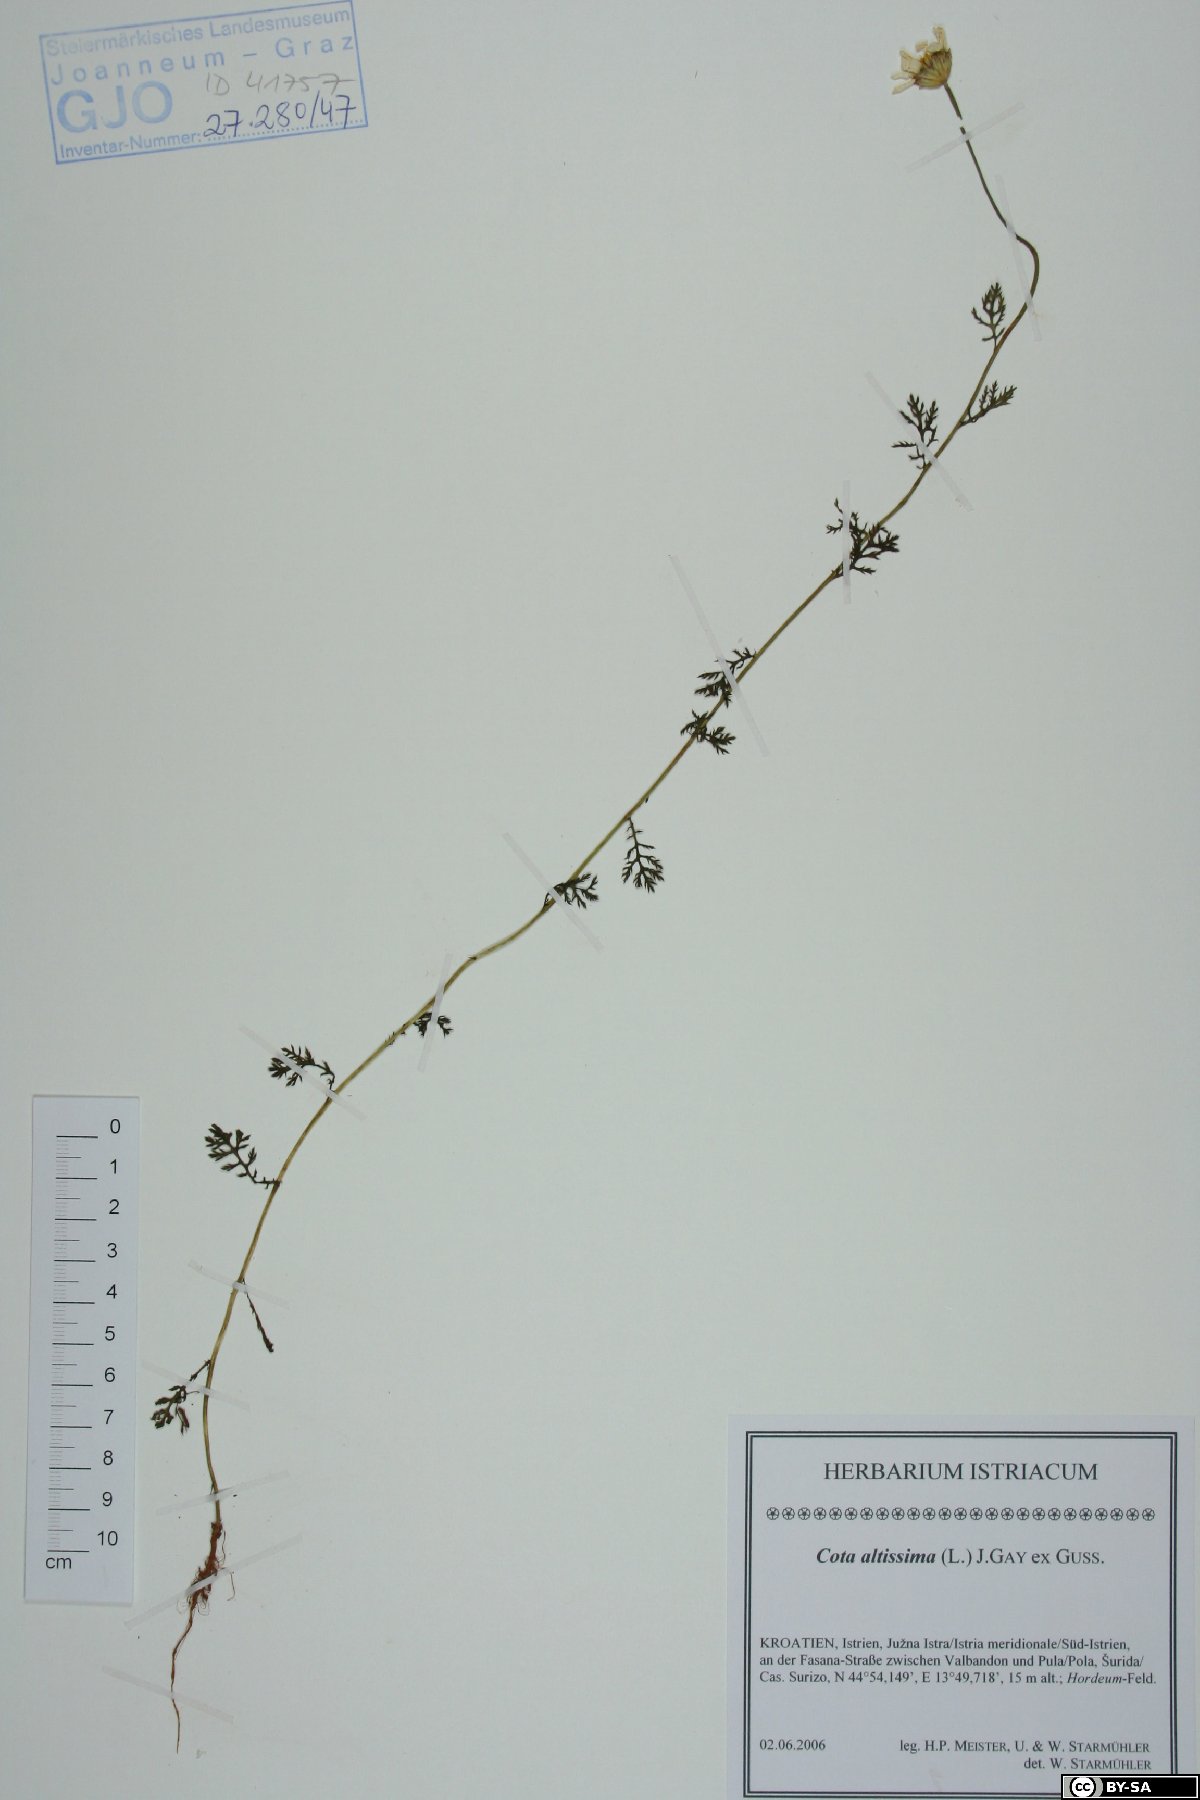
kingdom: Plantae
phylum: Tracheophyta
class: Magnoliopsida
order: Asterales
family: Asteraceae
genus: Cota
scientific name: Cota altissima
